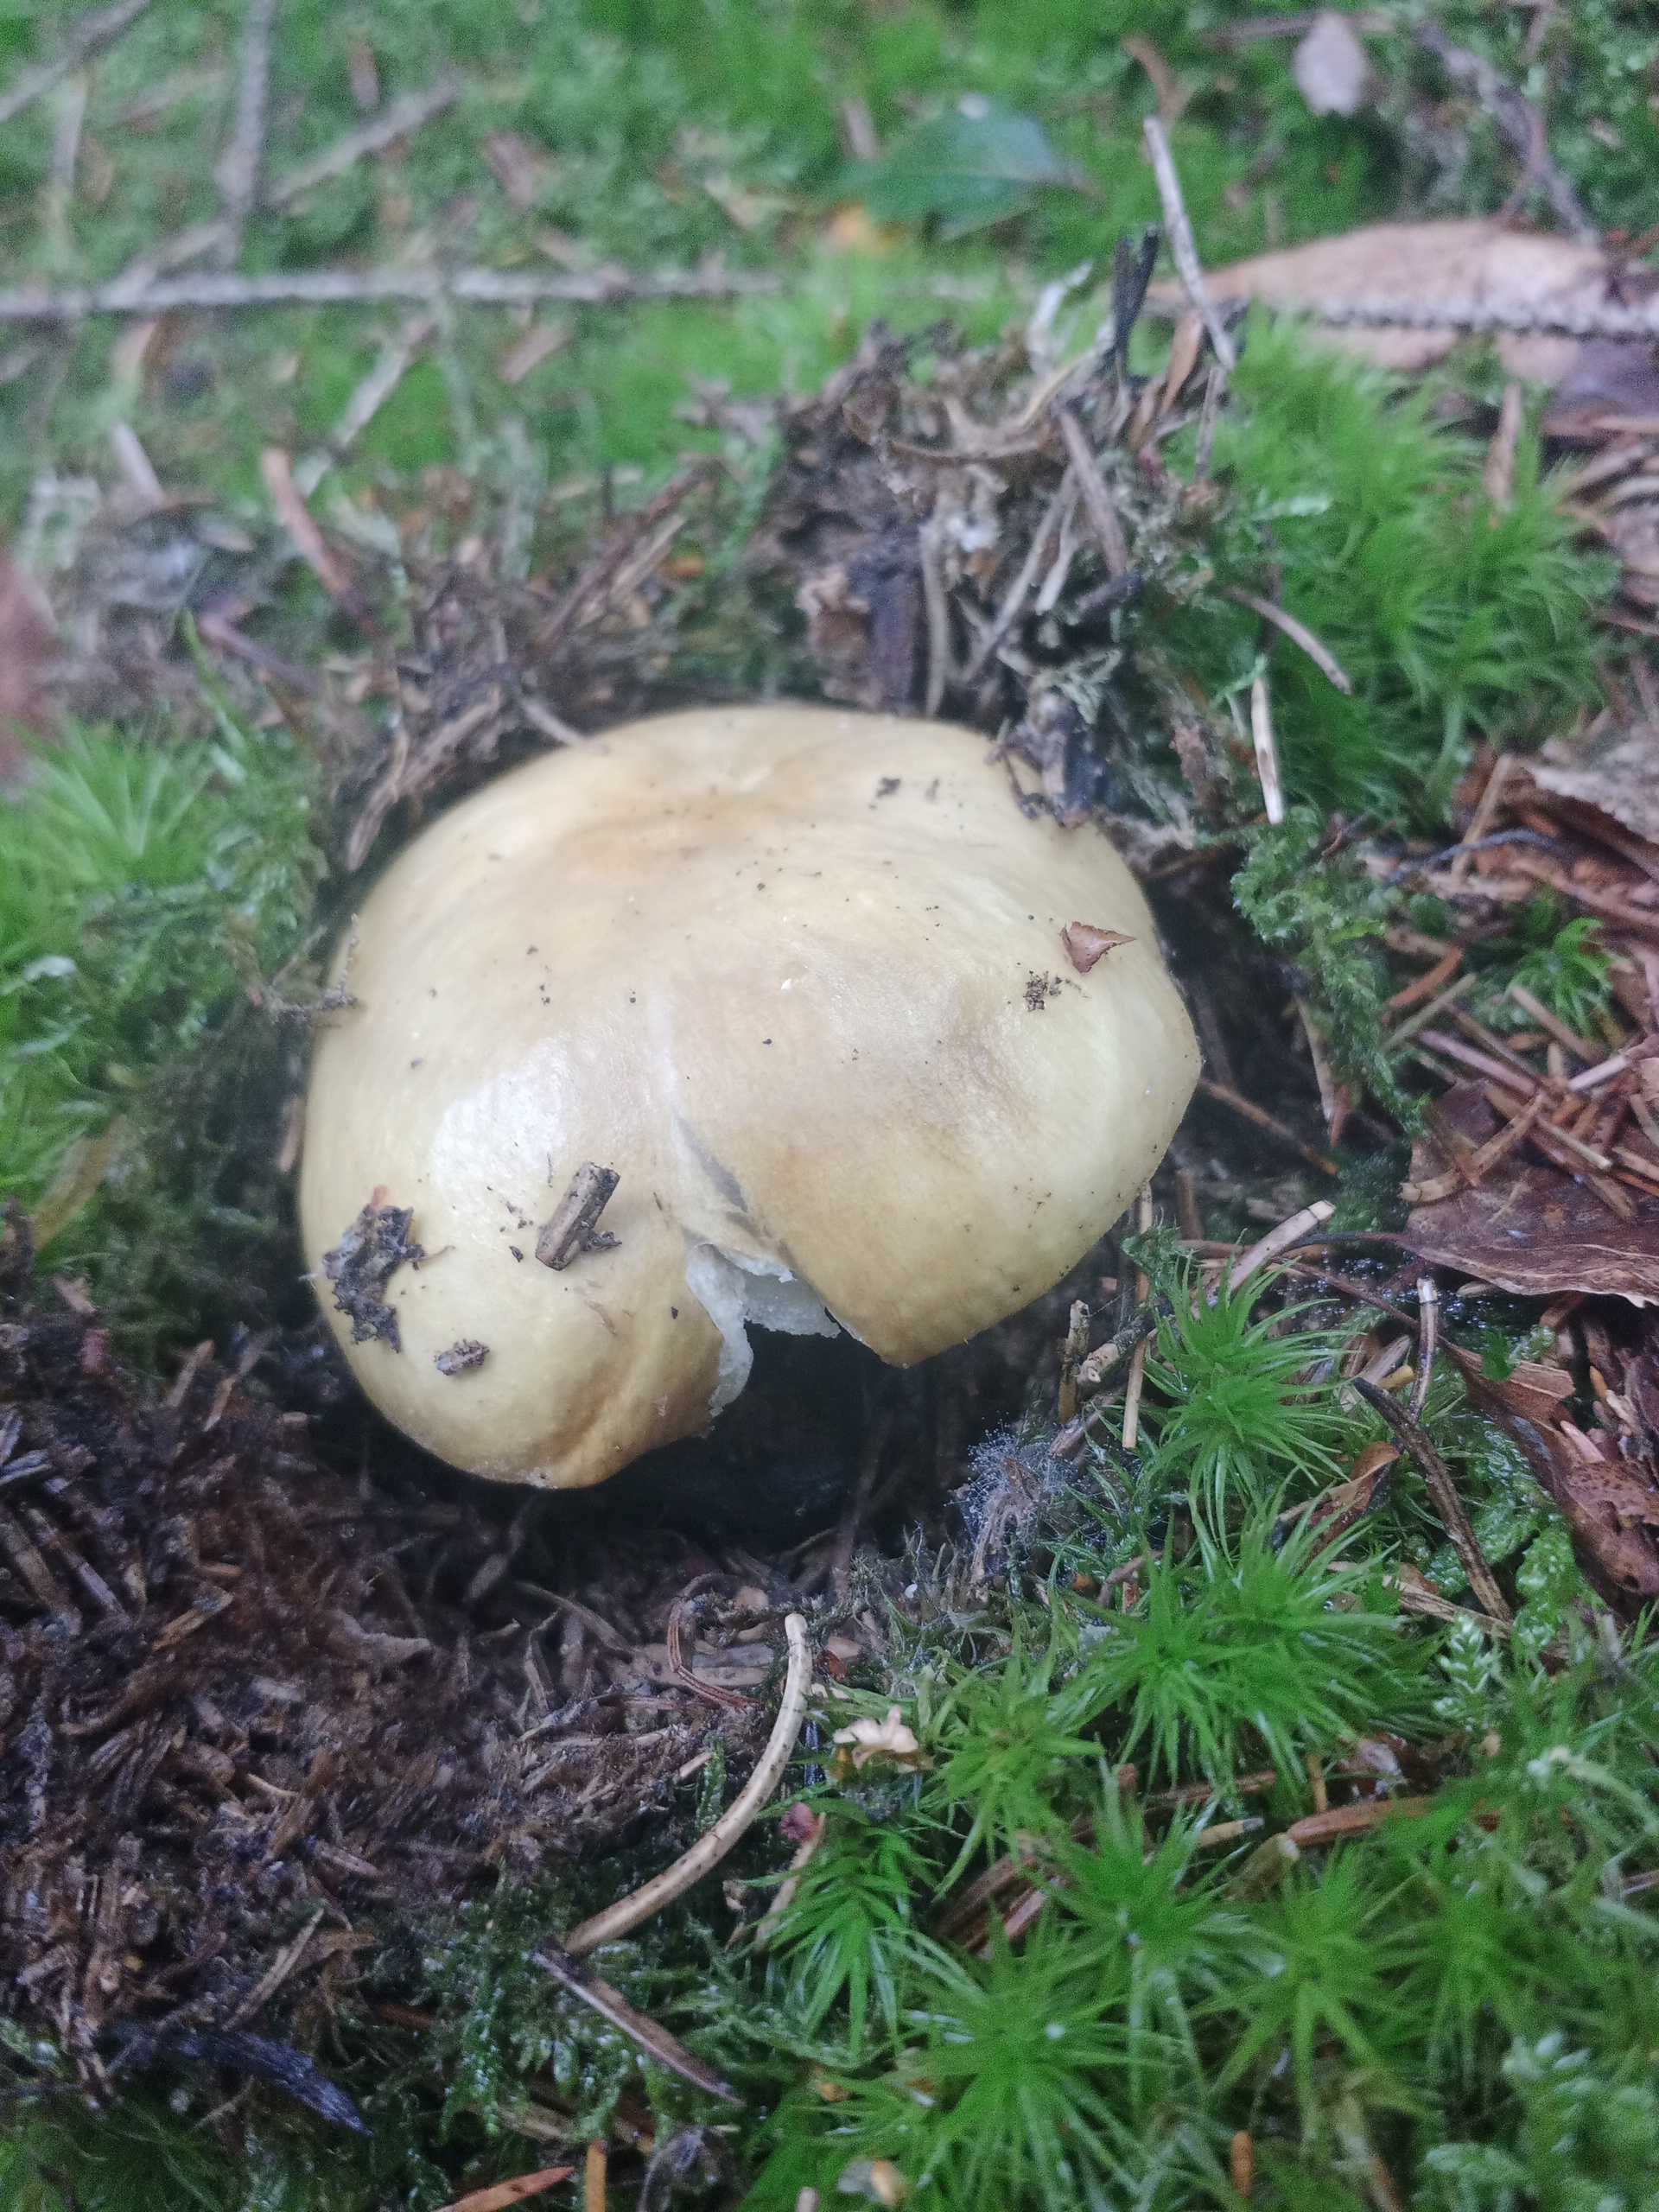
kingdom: Fungi
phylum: Basidiomycota
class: Agaricomycetes
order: Russulales
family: Russulaceae
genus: Russula
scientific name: Russula ochroleuca
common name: okkergul skørhat
